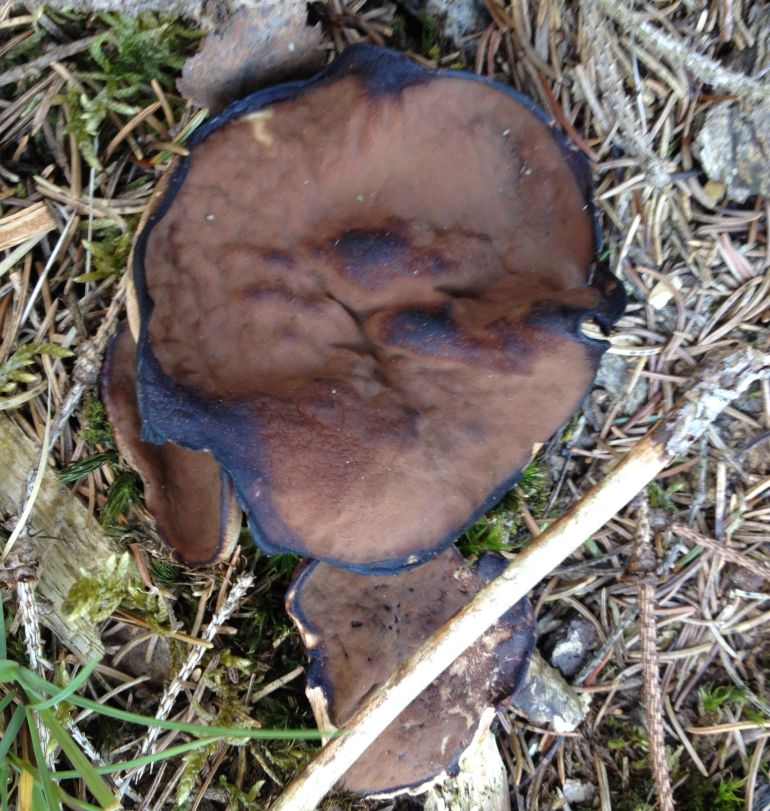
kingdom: Fungi
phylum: Ascomycota
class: Pezizomycetes
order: Pezizales
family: Discinaceae
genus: Discina
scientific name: Discina ancilis
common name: udbredt stenmorkel
